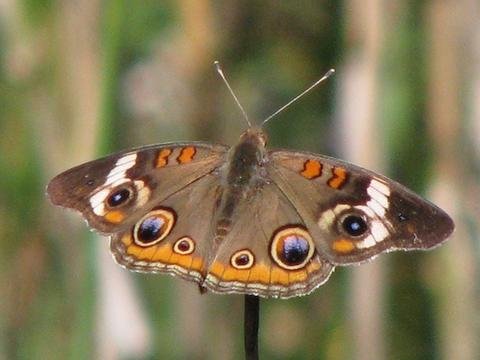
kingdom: Animalia
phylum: Arthropoda
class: Insecta
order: Lepidoptera
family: Nymphalidae
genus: Junonia
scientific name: Junonia coenia
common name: Common Buckeye
